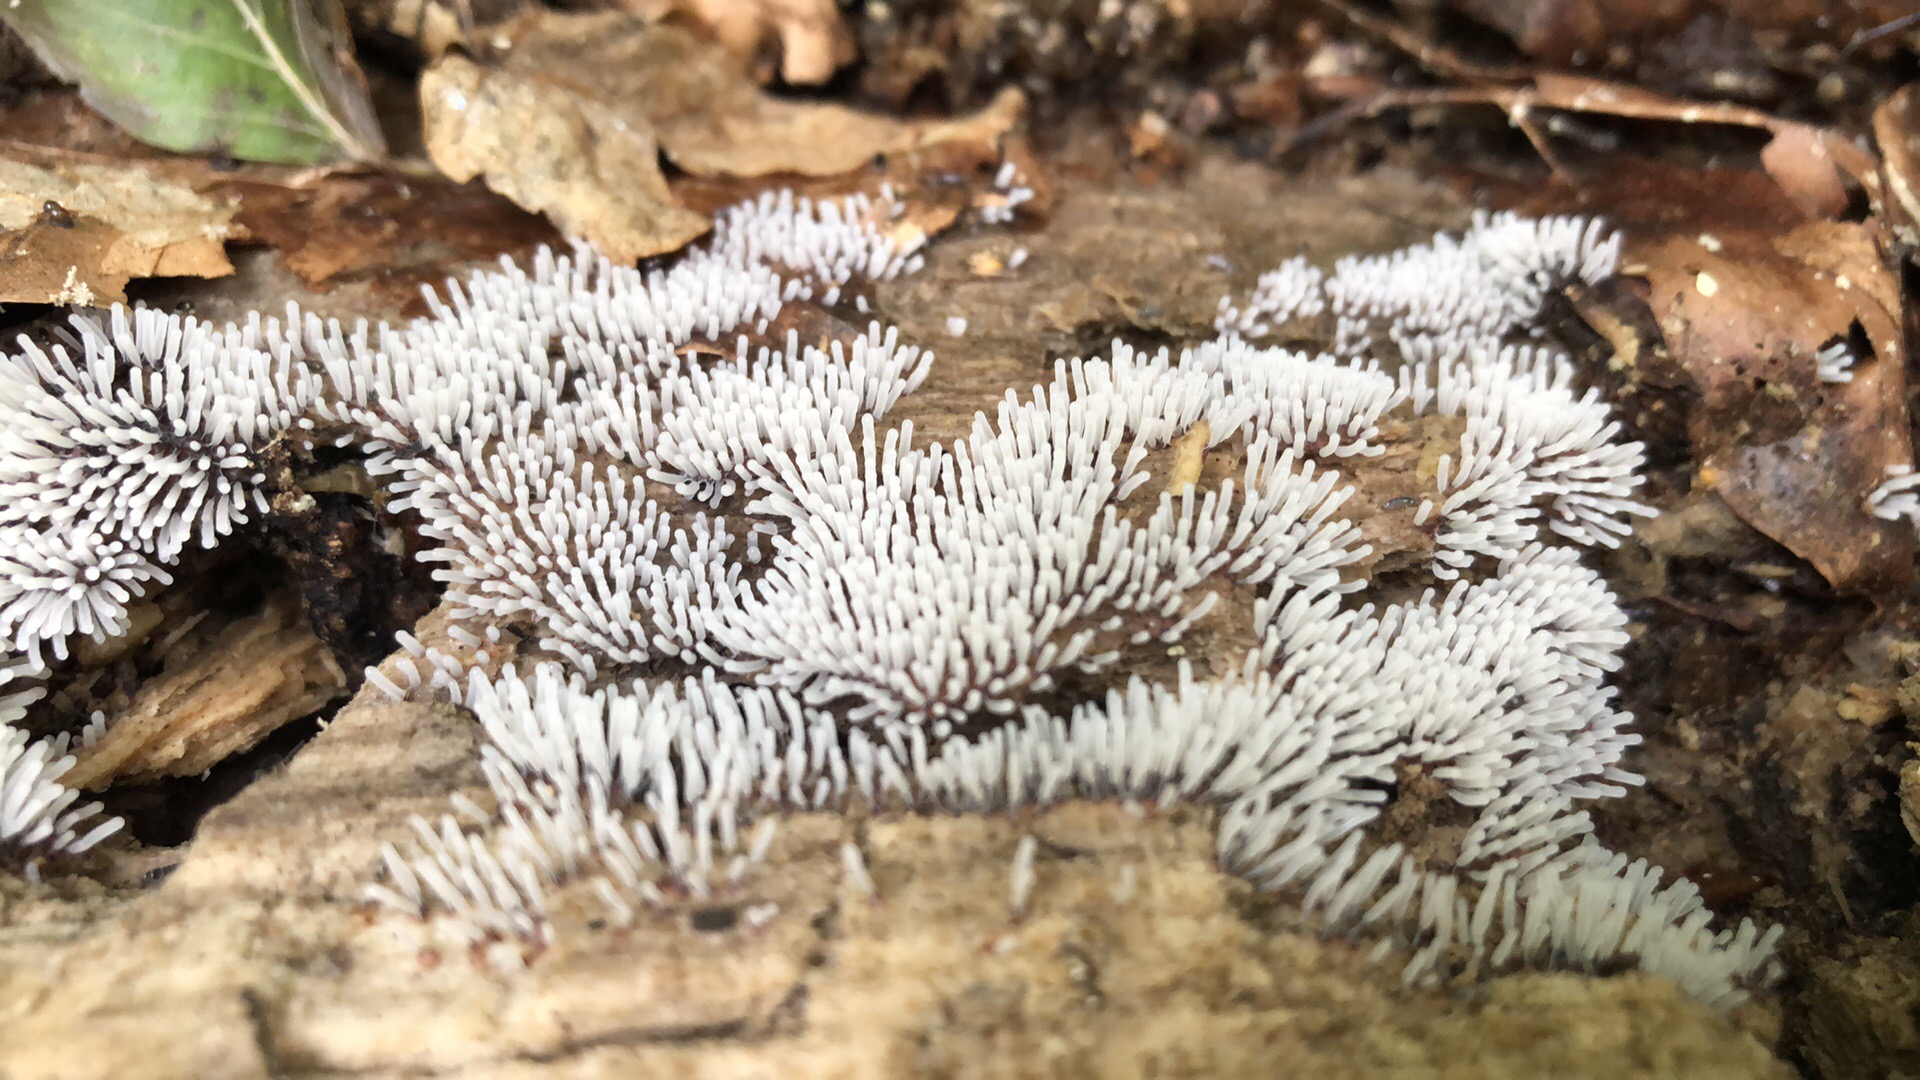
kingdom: Protozoa
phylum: Mycetozoa
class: Protosteliomycetes
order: Ceratiomyxales
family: Ceratiomyxaceae
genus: Ceratiomyxa
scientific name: Ceratiomyxa fruticulosa
